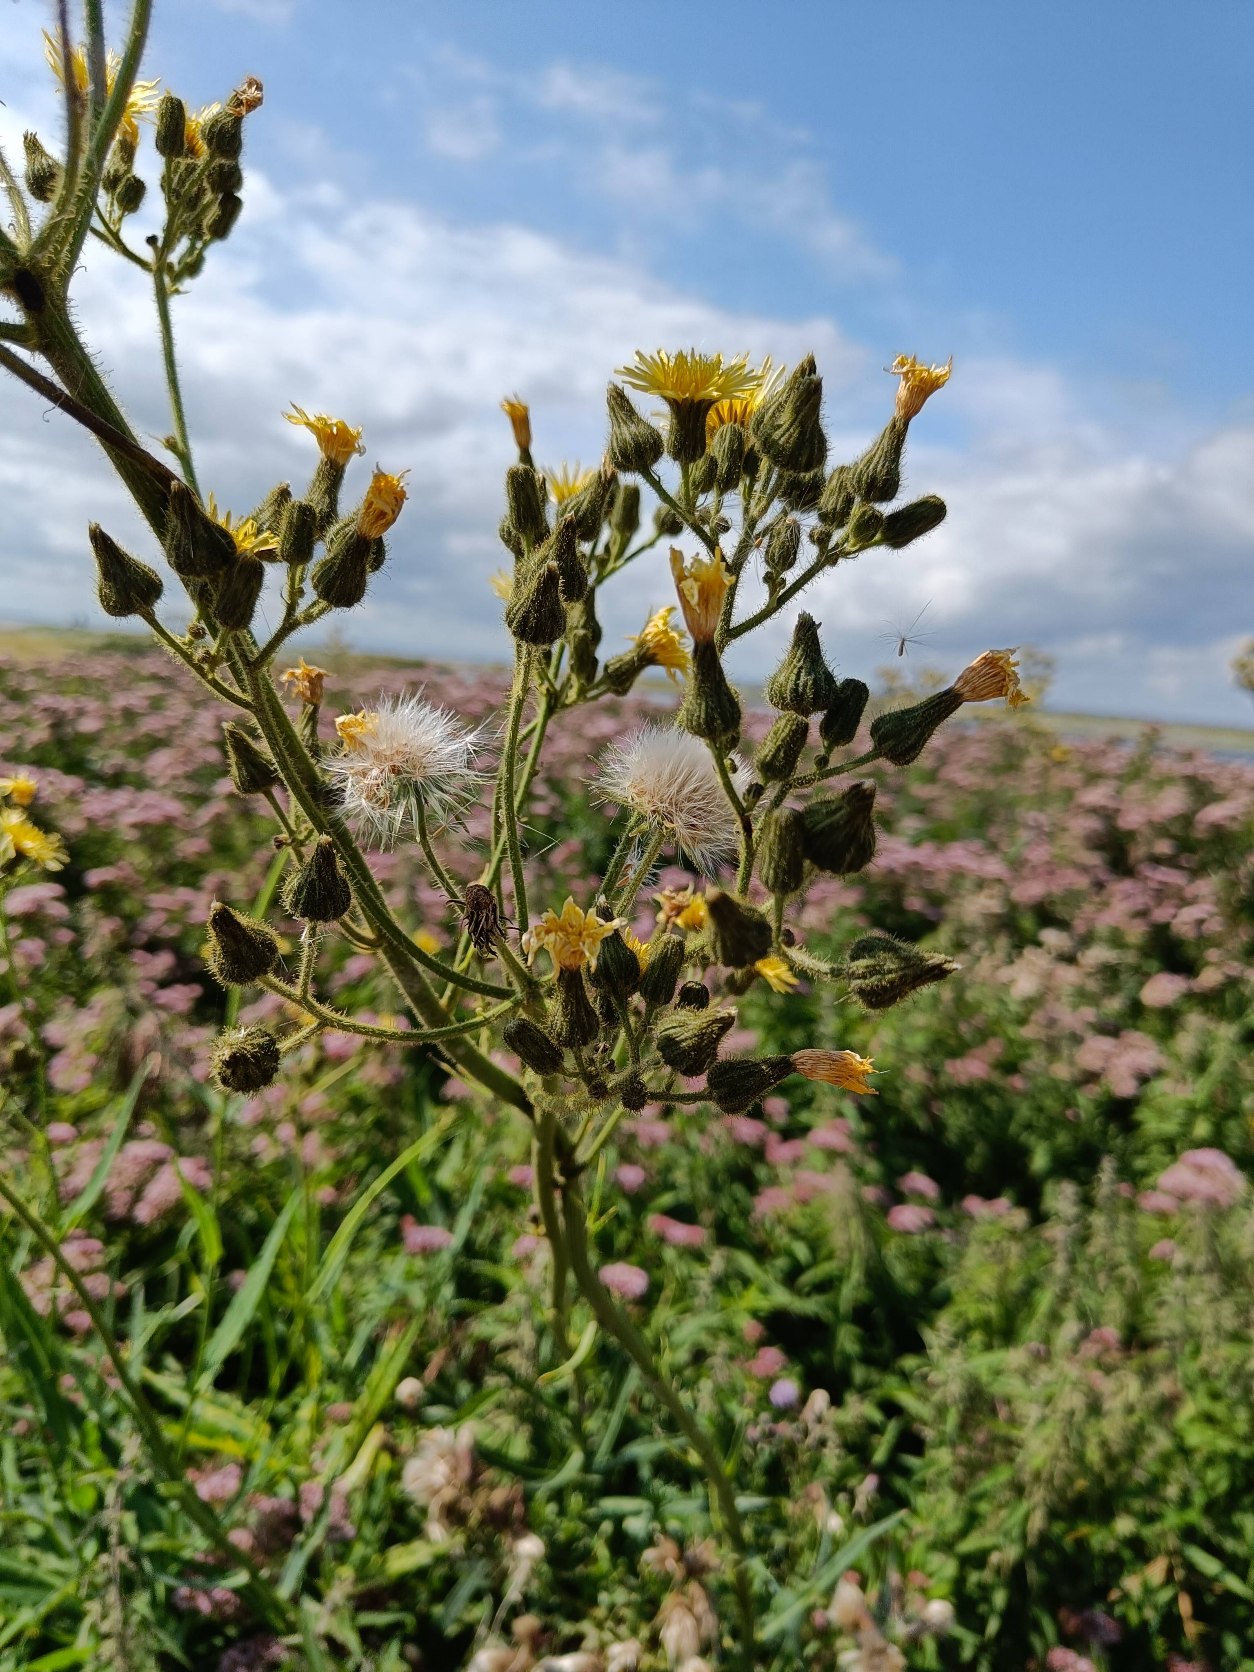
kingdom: Plantae
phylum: Tracheophyta
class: Magnoliopsida
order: Asterales
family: Asteraceae
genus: Sonchus
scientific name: Sonchus palustris
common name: Kær-svinemælk
